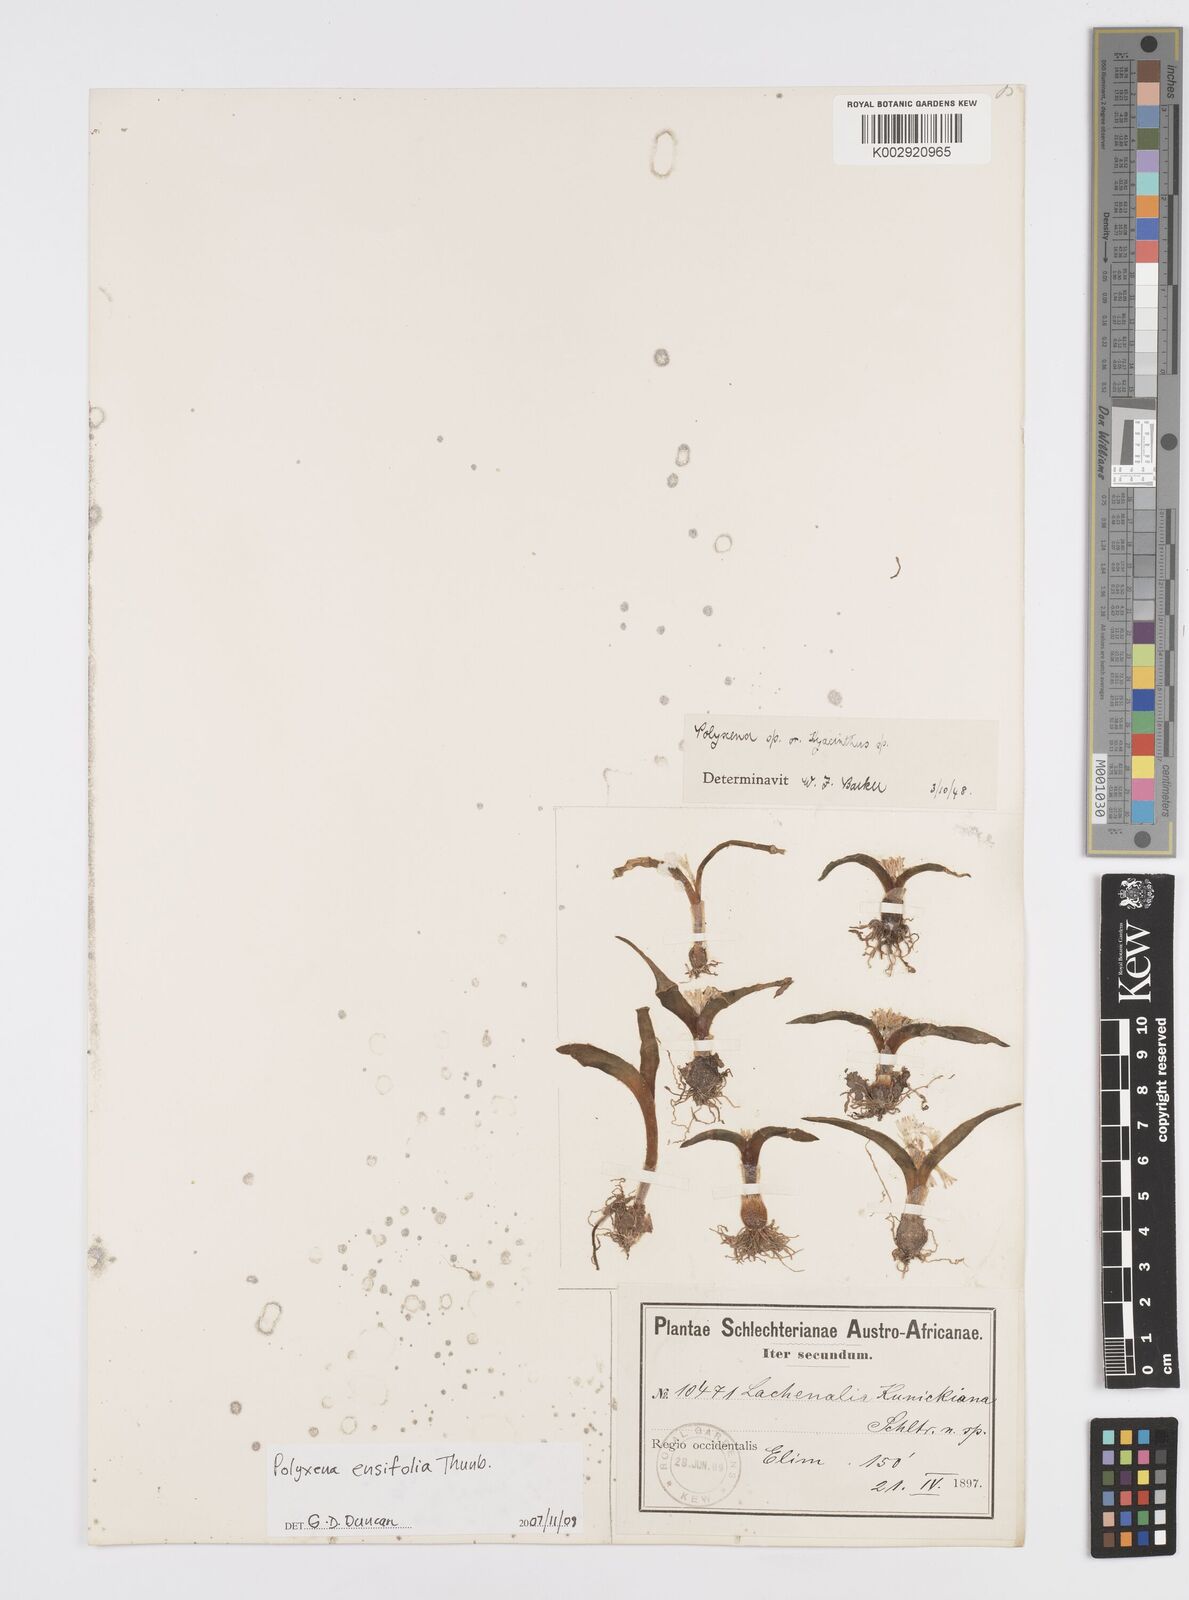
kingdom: Plantae
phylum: Tracheophyta
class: Liliopsida
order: Asparagales
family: Asparagaceae
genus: Lachenalia
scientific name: Lachenalia ensifolia
